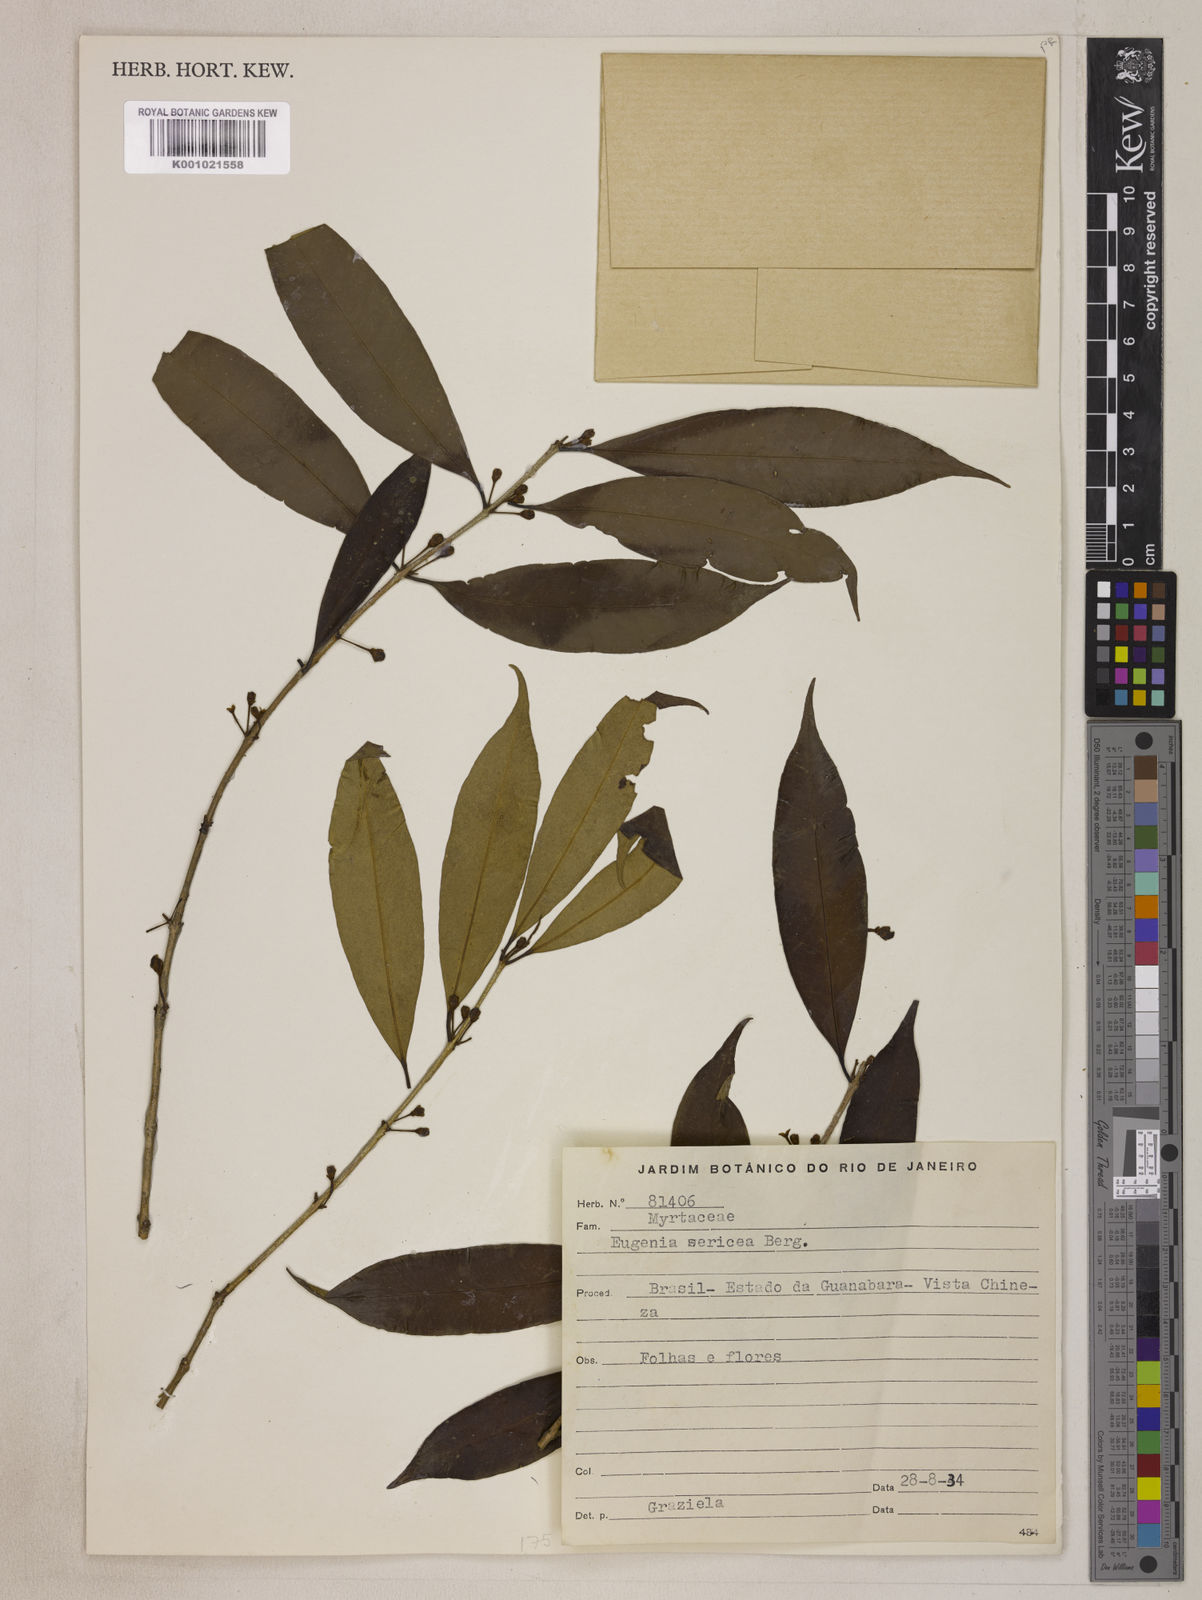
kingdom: Plantae
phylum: Tracheophyta
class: Magnoliopsida
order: Myrtales
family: Myrtaceae
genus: Eugenia
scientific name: Eugenia pisiformis
